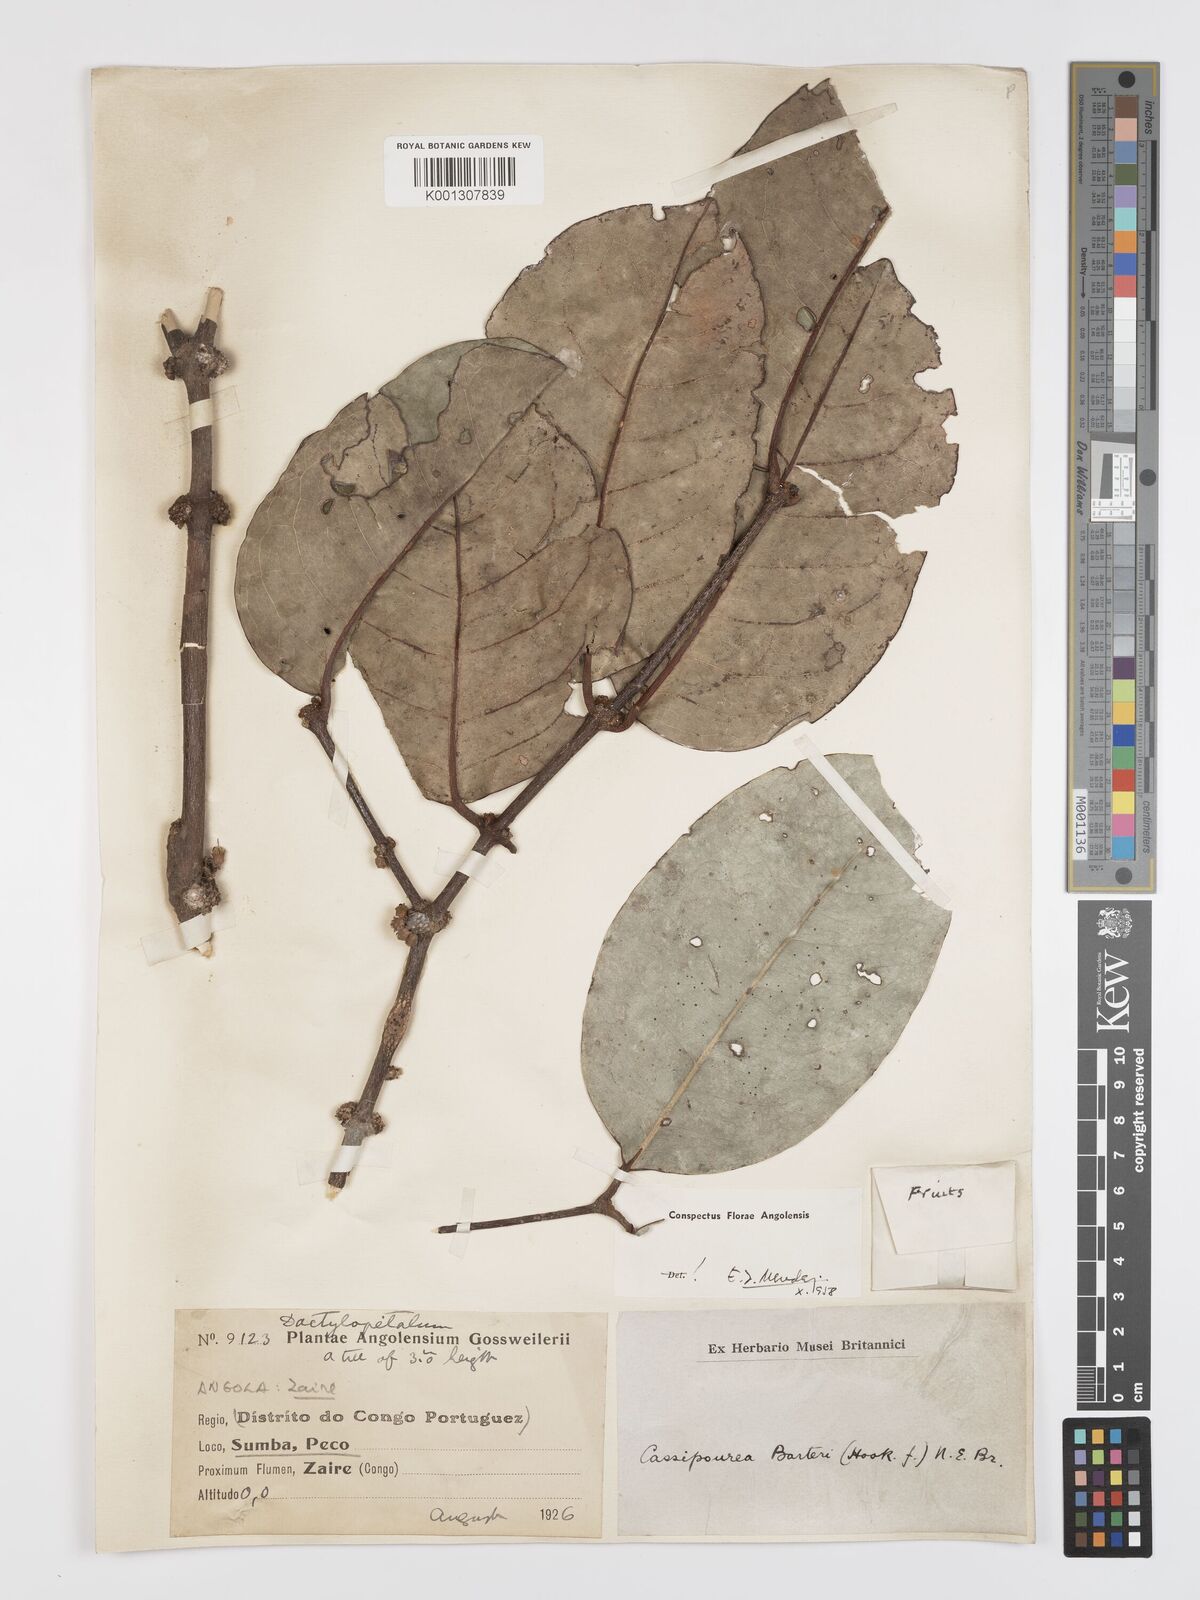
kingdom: Plantae
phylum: Tracheophyta
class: Magnoliopsida
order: Malpighiales
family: Rhizophoraceae
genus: Cassipourea
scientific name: Cassipourea
